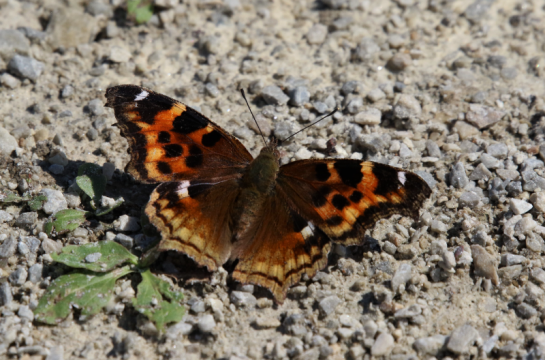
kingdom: Animalia
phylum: Arthropoda
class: Insecta
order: Lepidoptera
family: Nymphalidae
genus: Polygonia
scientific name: Polygonia vaualbum
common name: Compton Tortoiseshell
